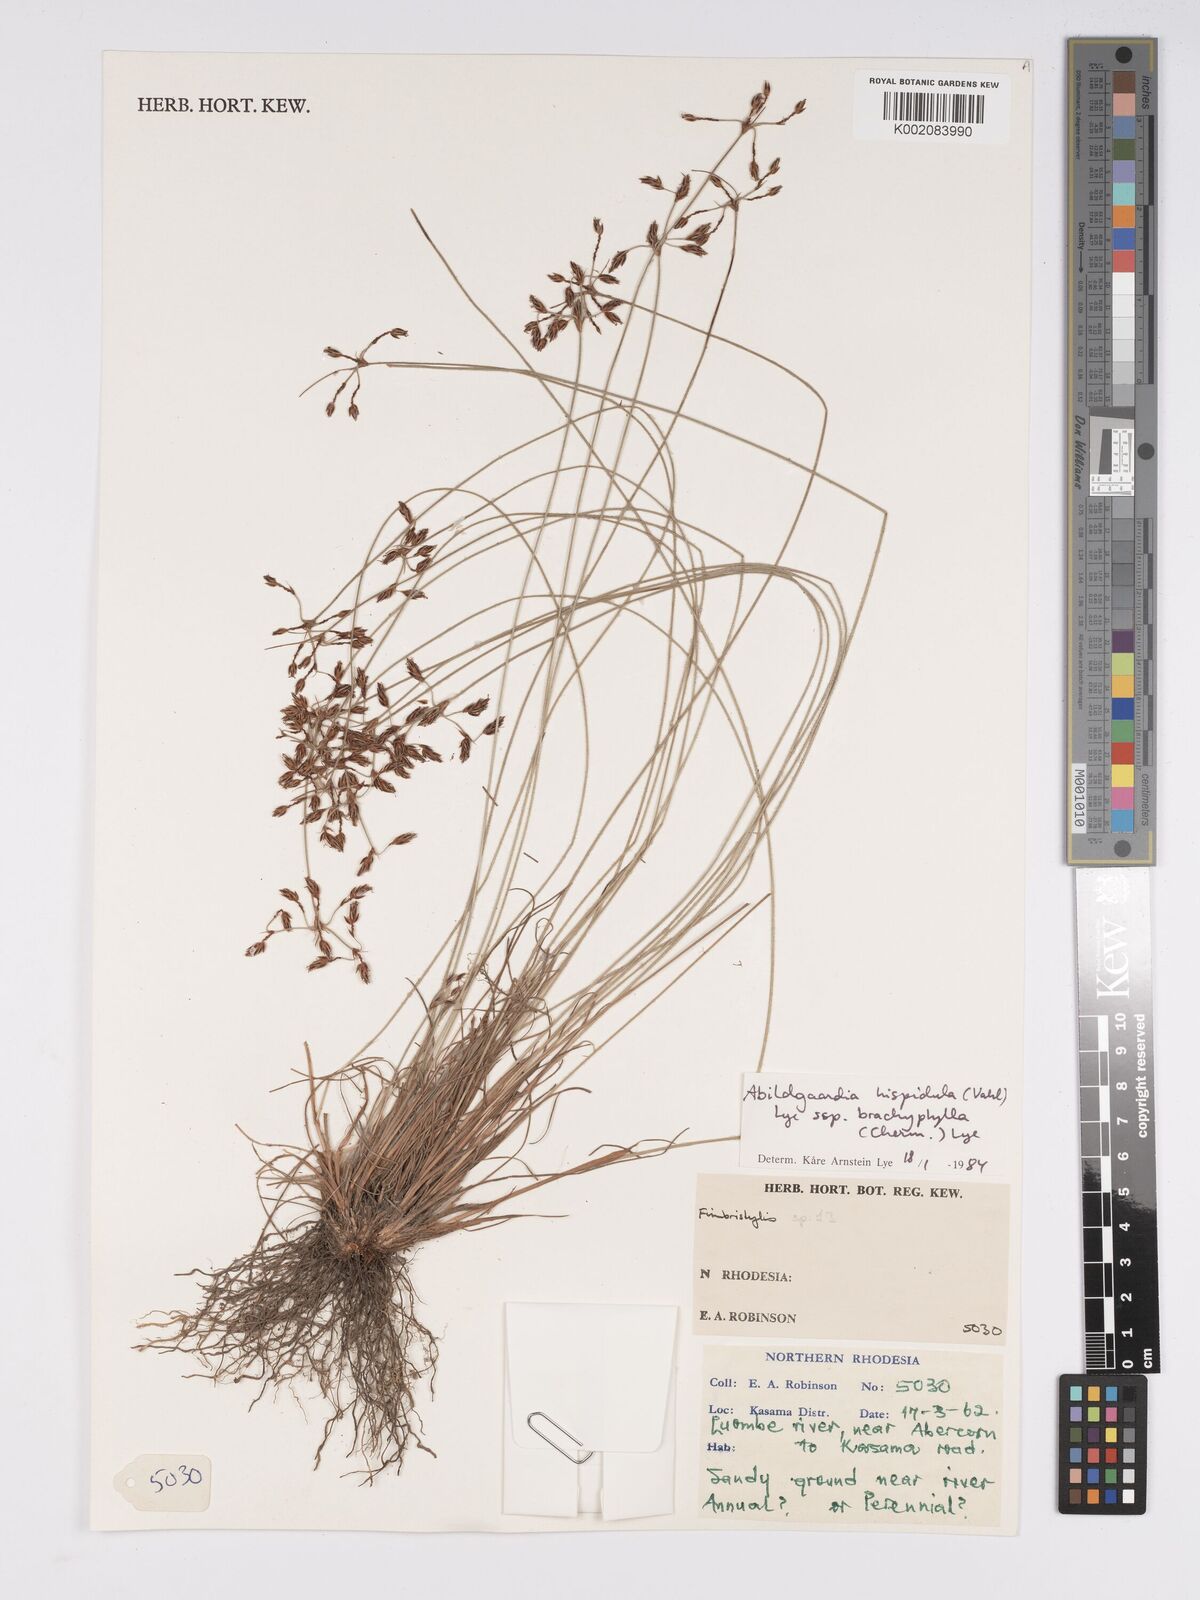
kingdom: Plantae
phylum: Tracheophyta
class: Liliopsida
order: Poales
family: Cyperaceae
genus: Bulbostylis
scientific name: Bulbostylis hispidula
